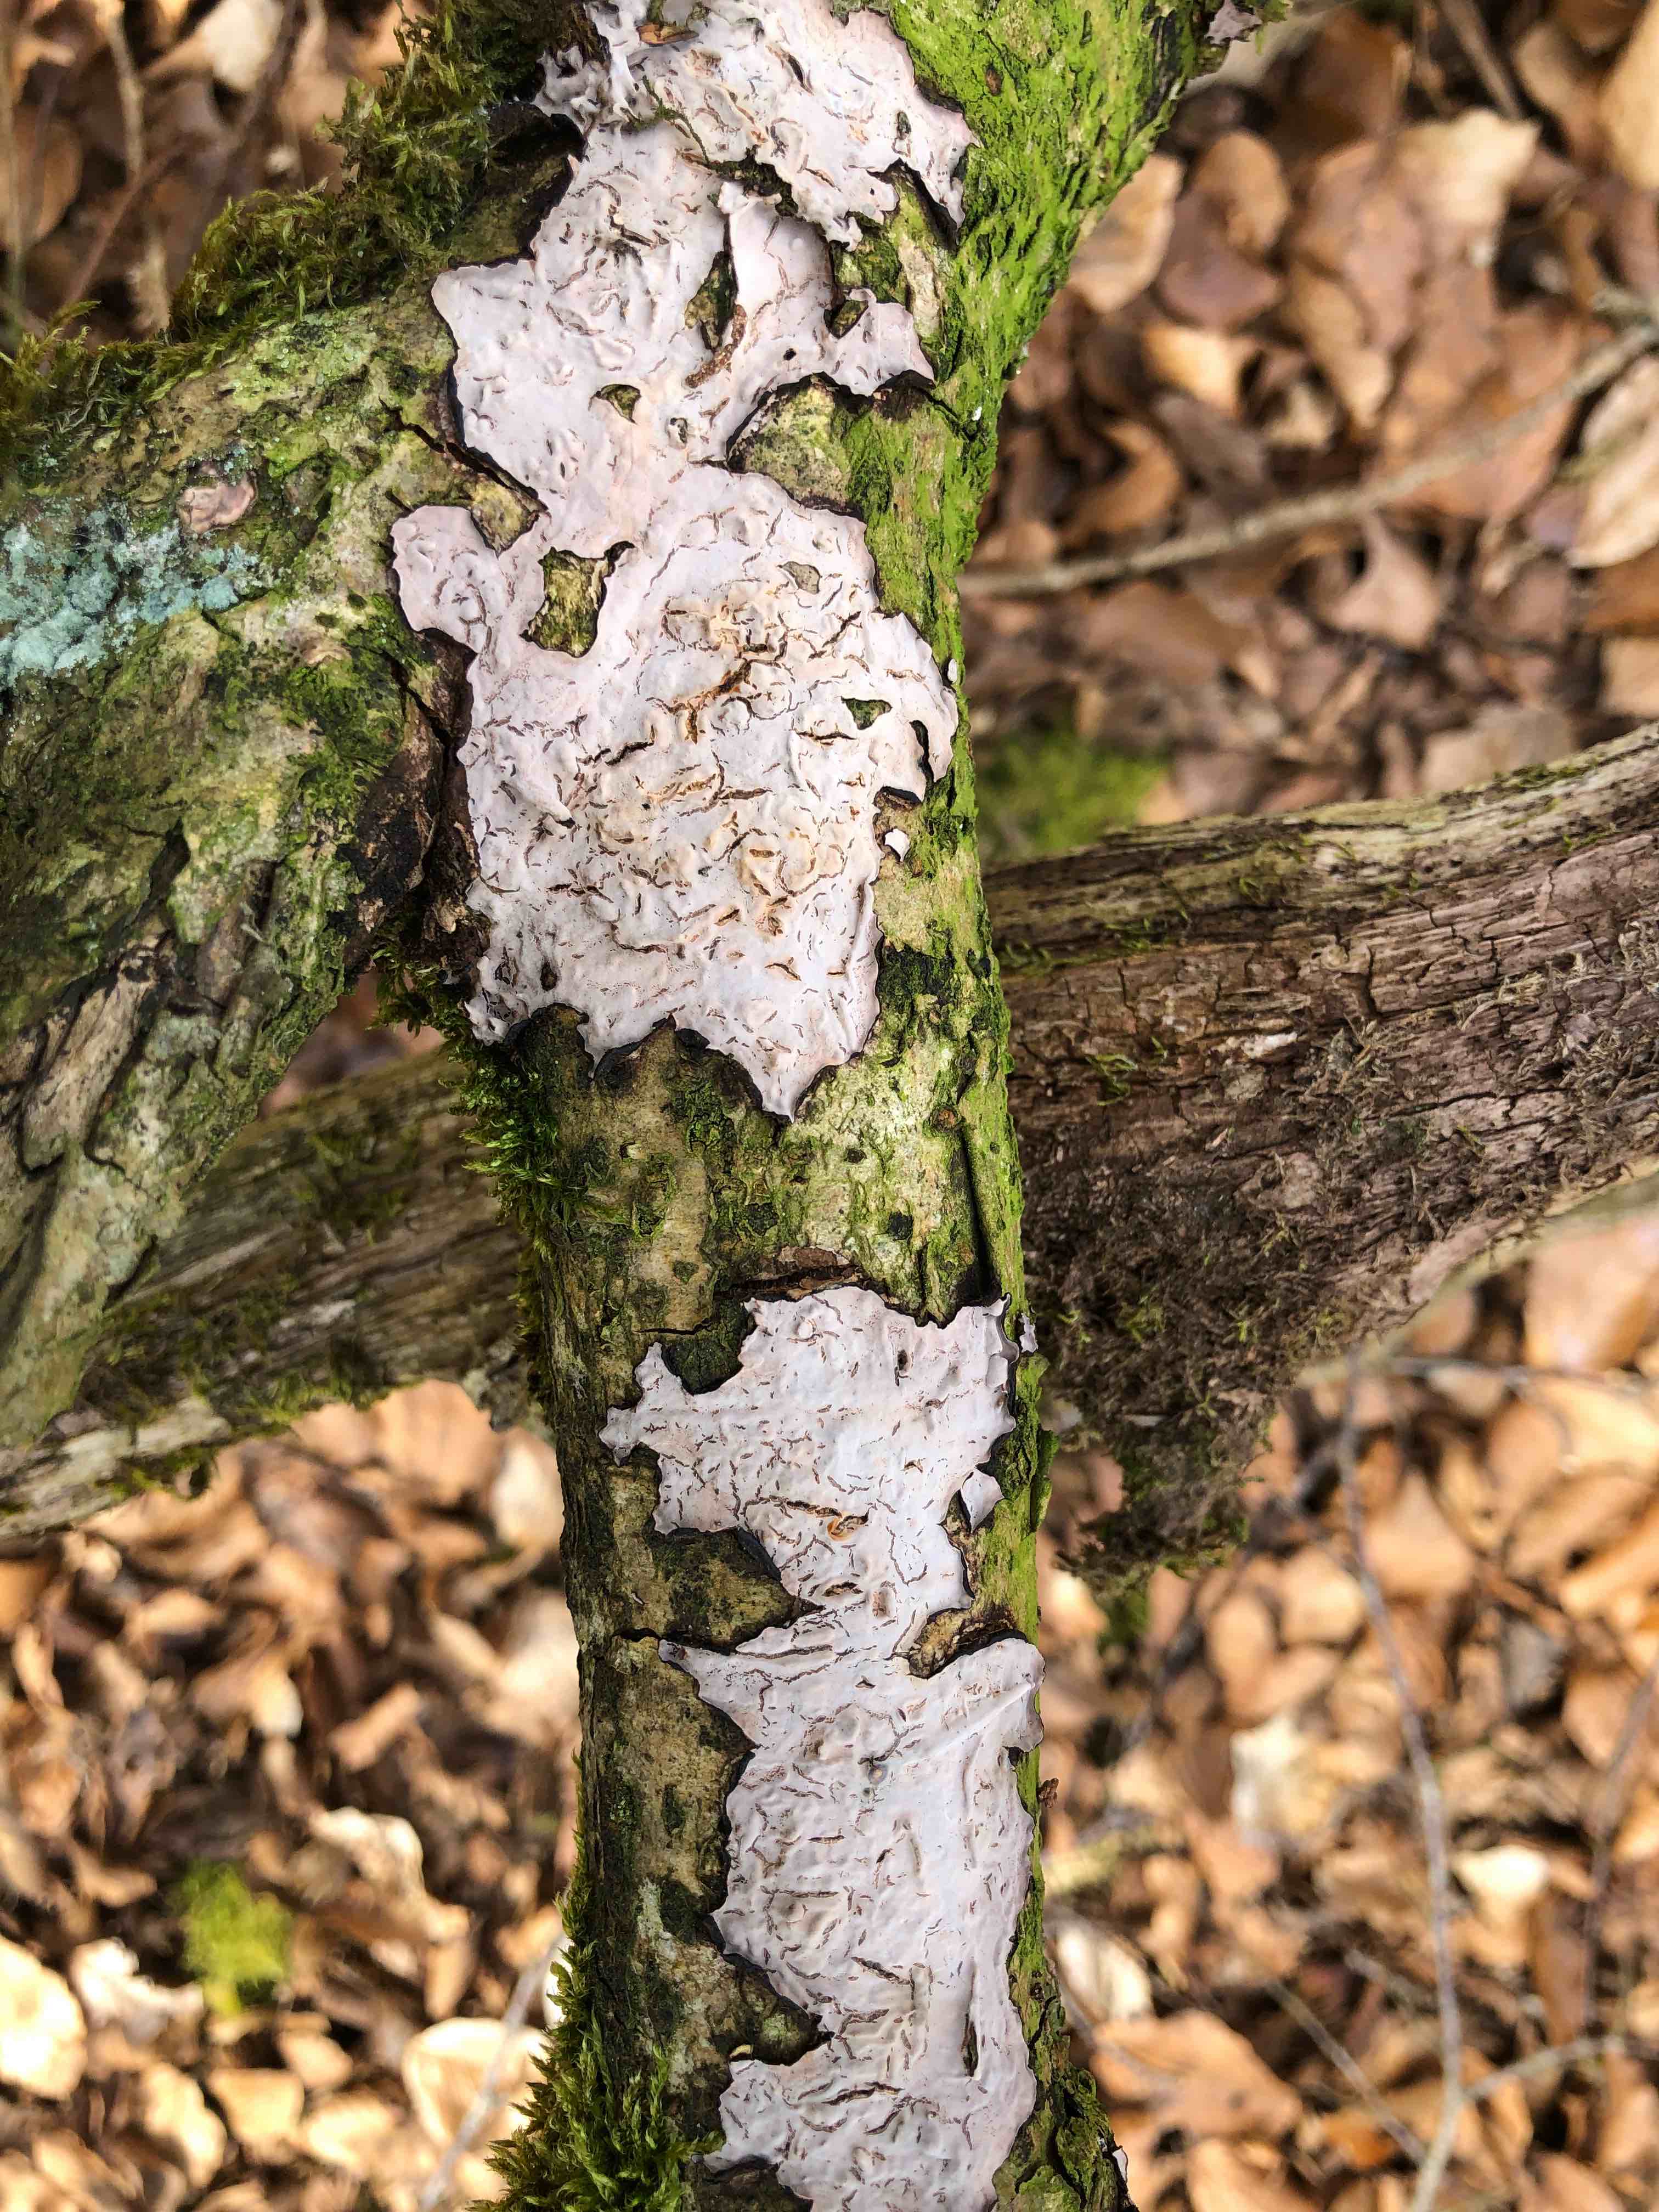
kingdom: Fungi
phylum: Basidiomycota
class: Agaricomycetes
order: Russulales
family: Peniophoraceae
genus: Peniophora
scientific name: Peniophora quercina
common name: ege-voksskind
